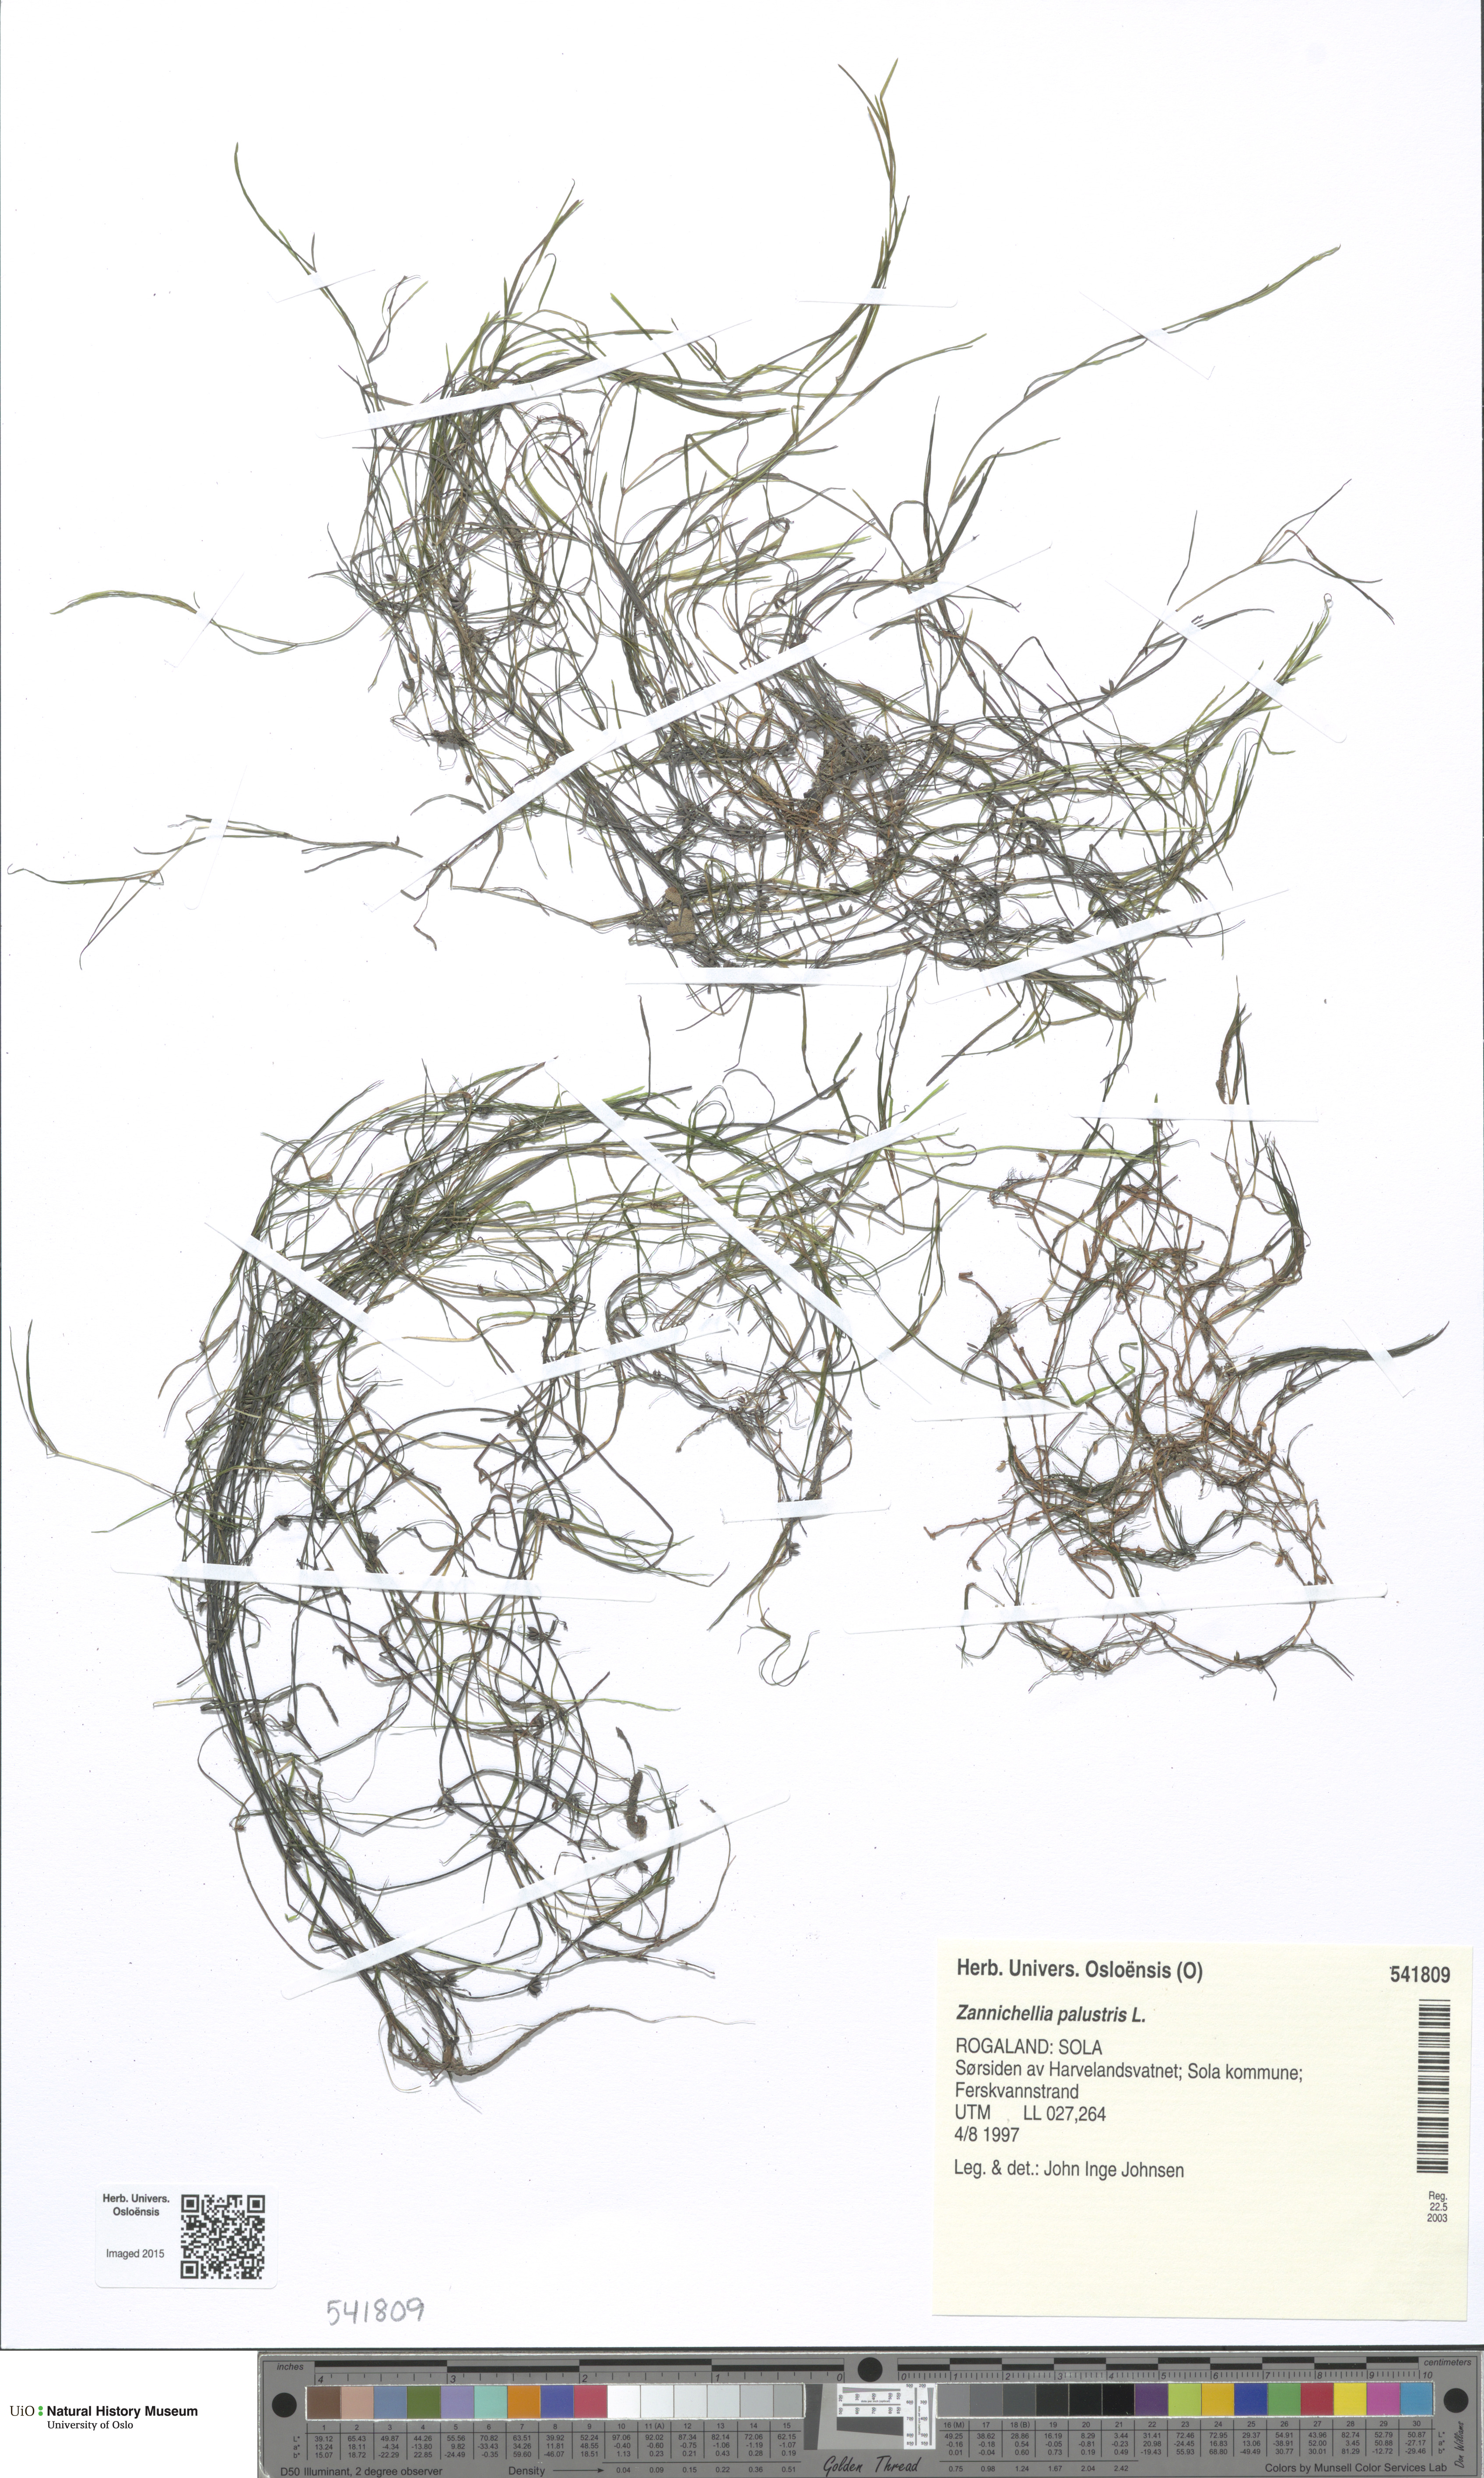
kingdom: Plantae
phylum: Tracheophyta
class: Liliopsida
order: Alismatales
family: Potamogetonaceae
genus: Zannichellia
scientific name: Zannichellia palustris
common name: Horned pondweed
